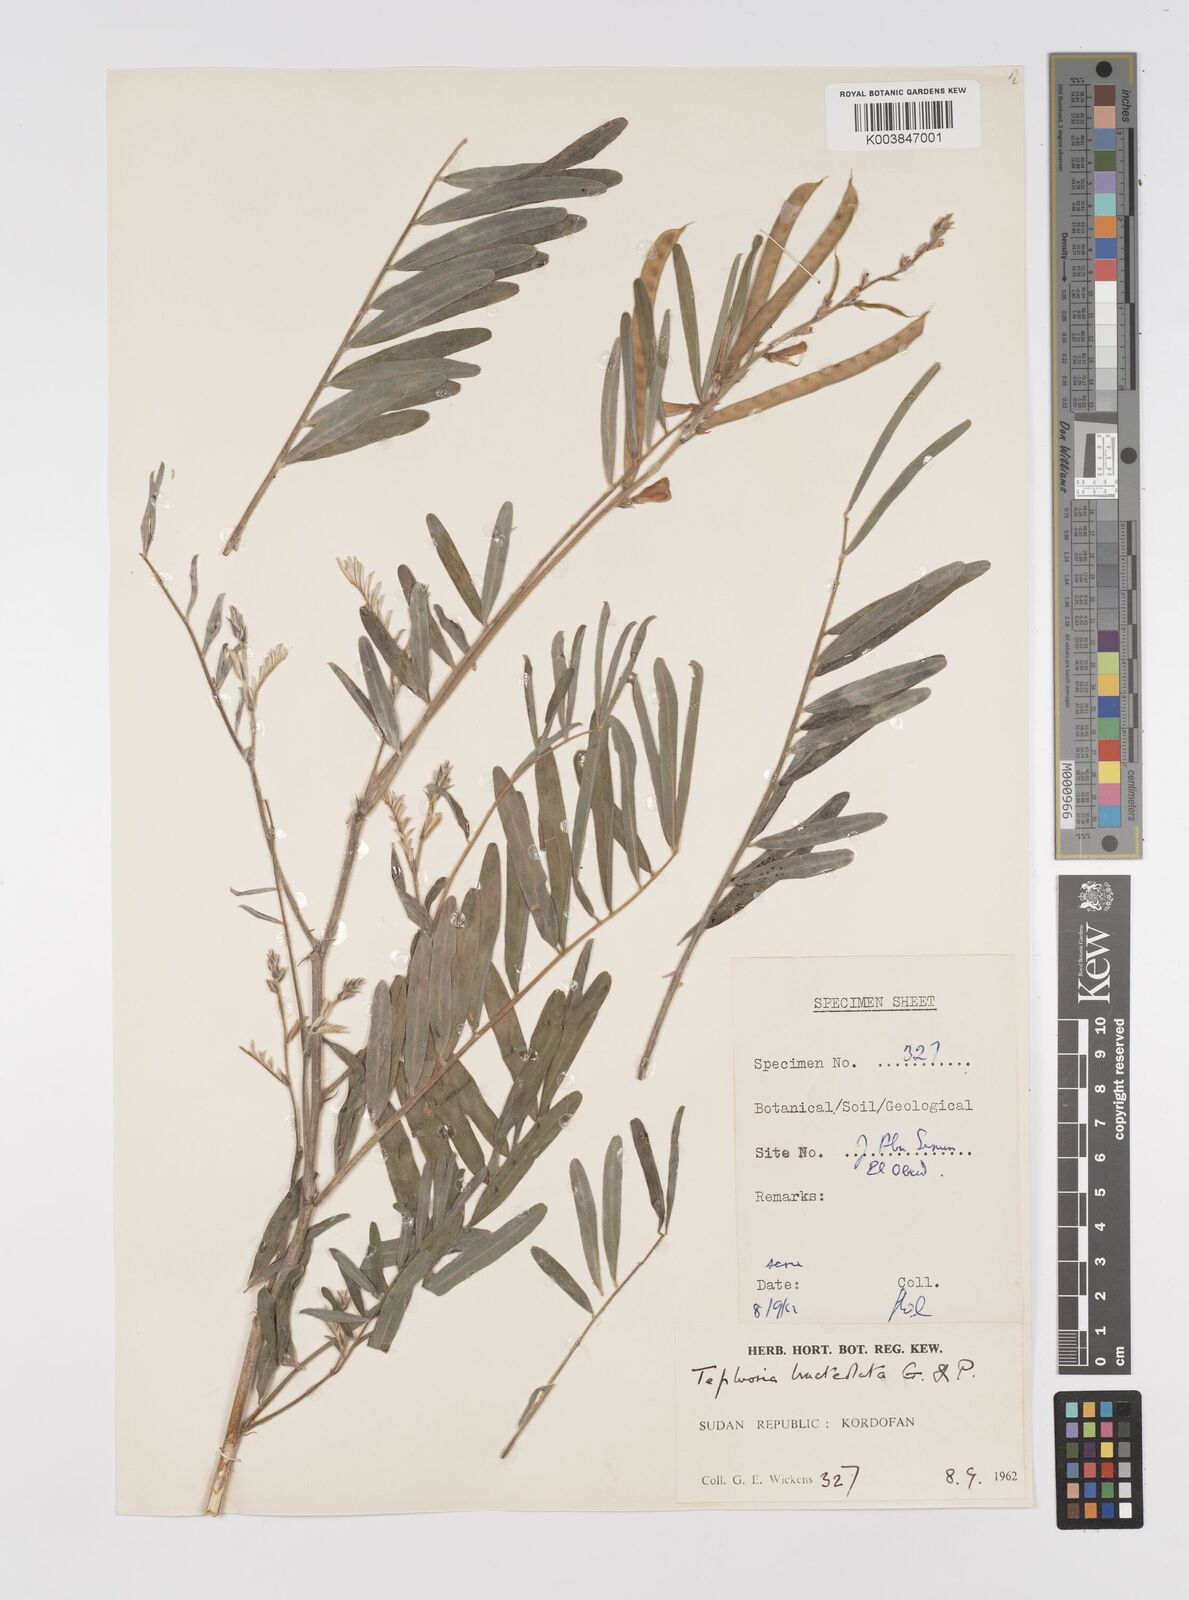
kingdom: Plantae
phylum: Tracheophyta
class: Magnoliopsida
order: Fabales
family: Fabaceae
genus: Tephrosia
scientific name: Tephrosia bracteolata
